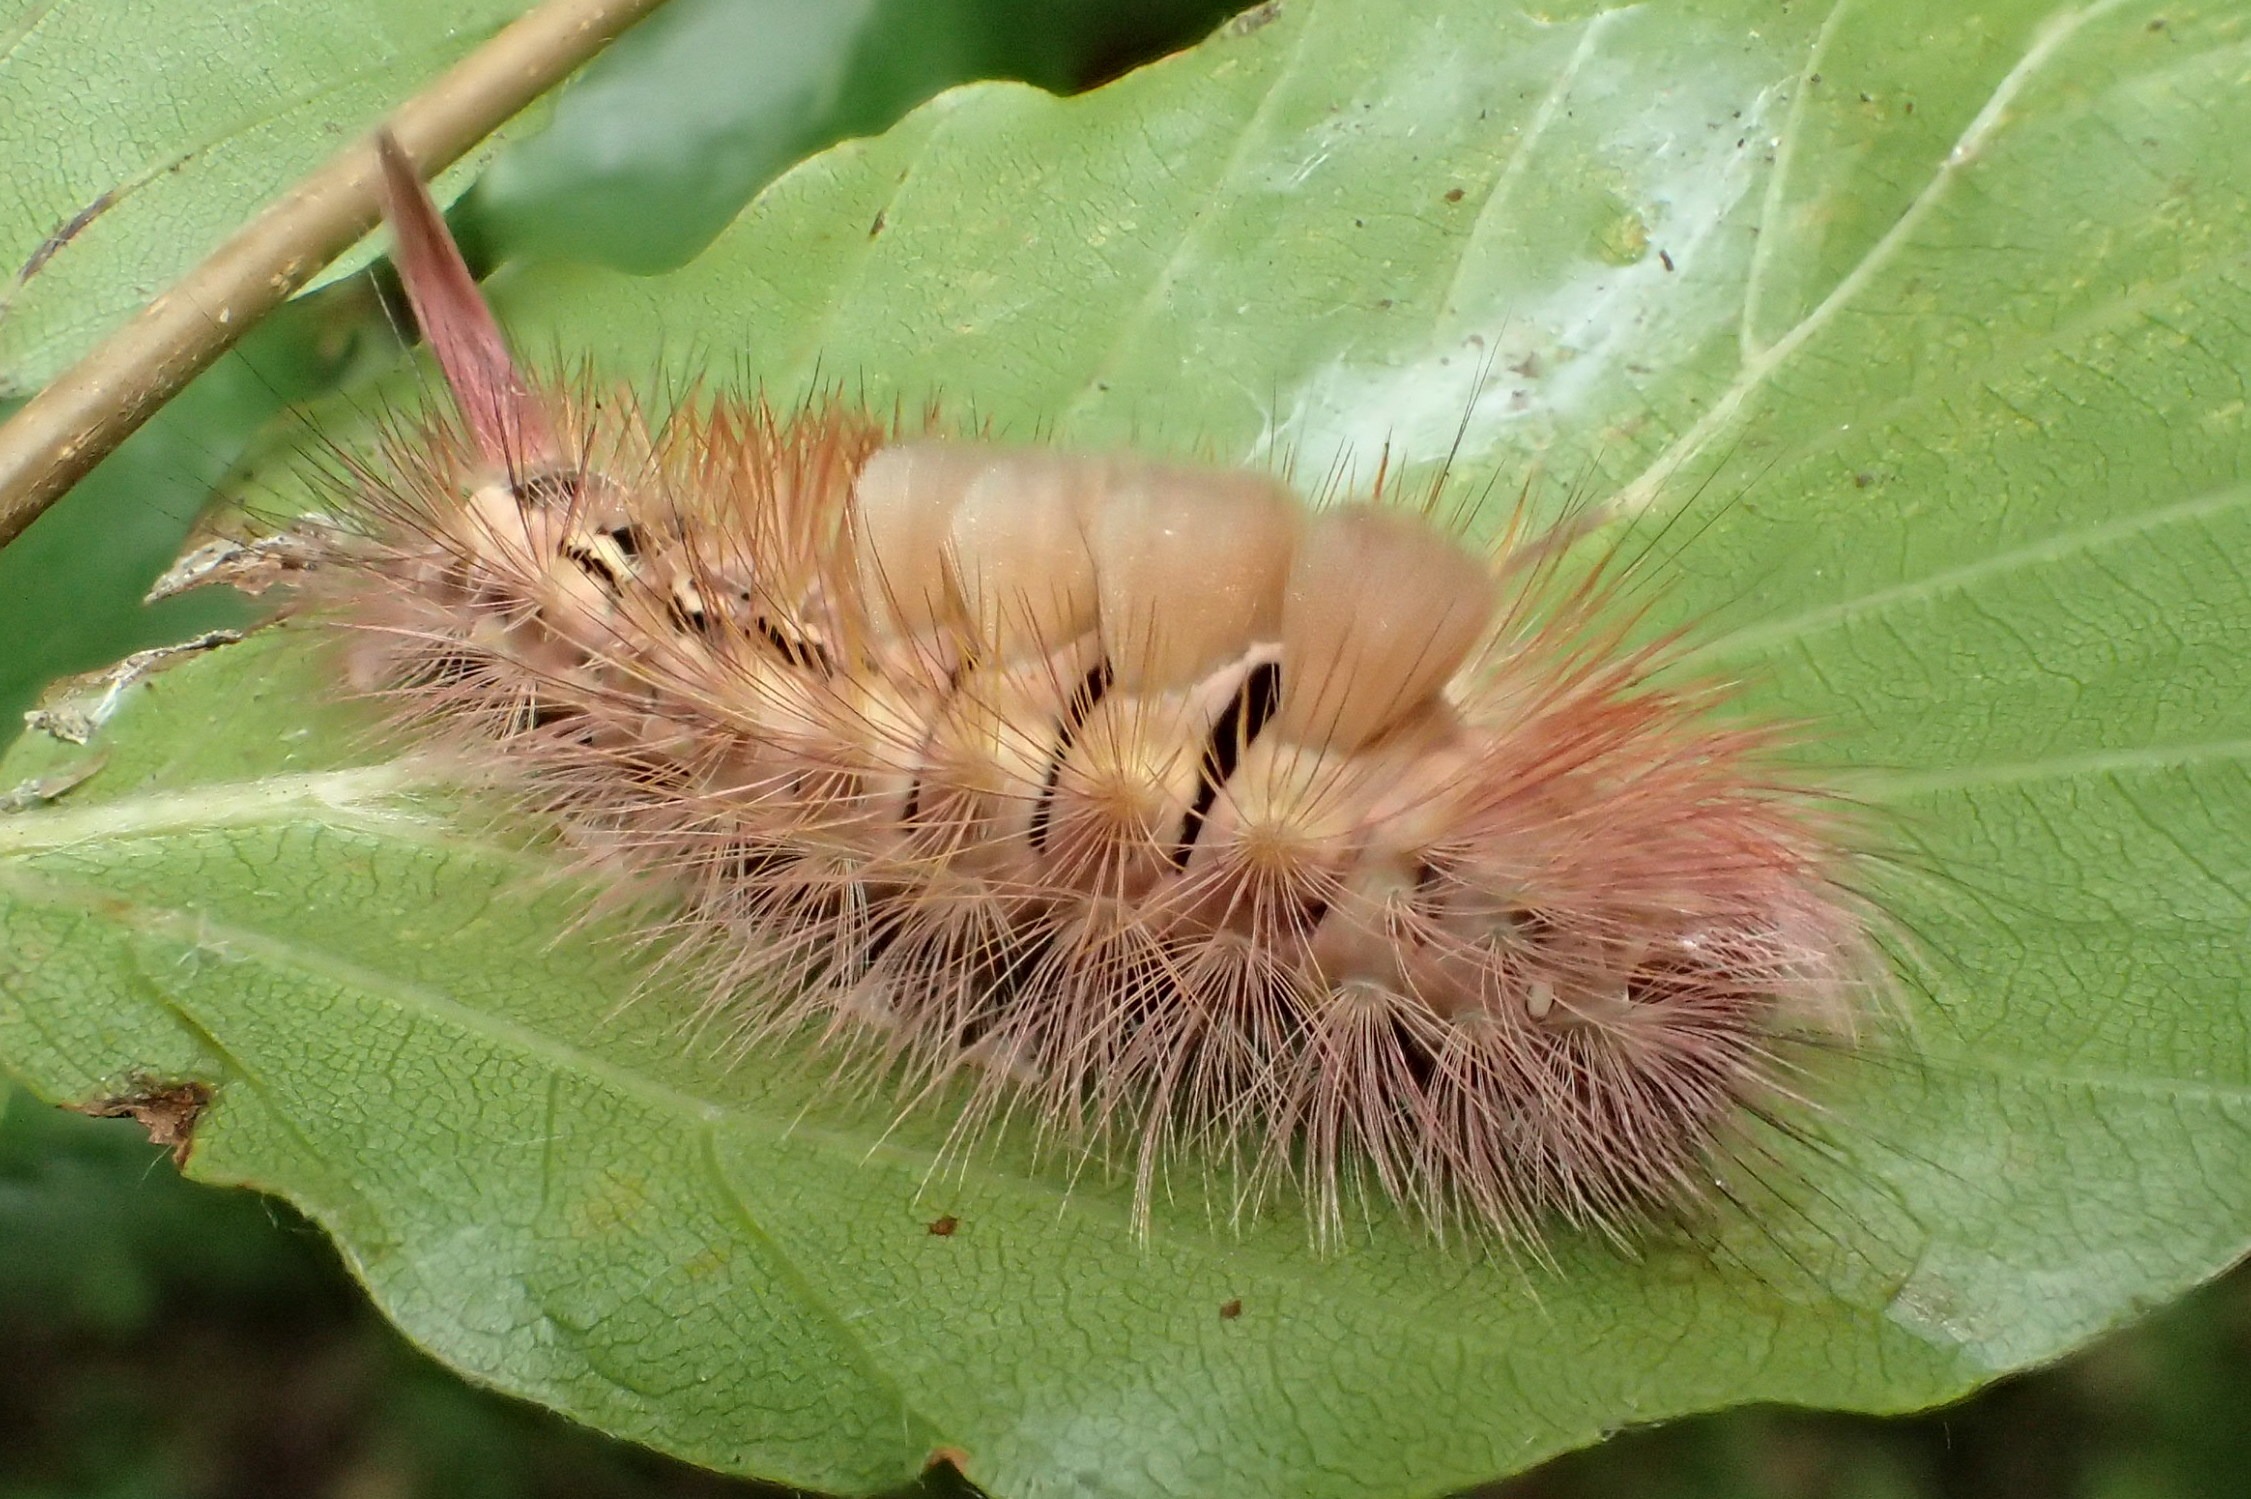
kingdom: Animalia
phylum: Arthropoda
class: Insecta
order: Lepidoptera
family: Erebidae
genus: Calliteara
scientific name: Calliteara pudibunda
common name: Bøgenonne
